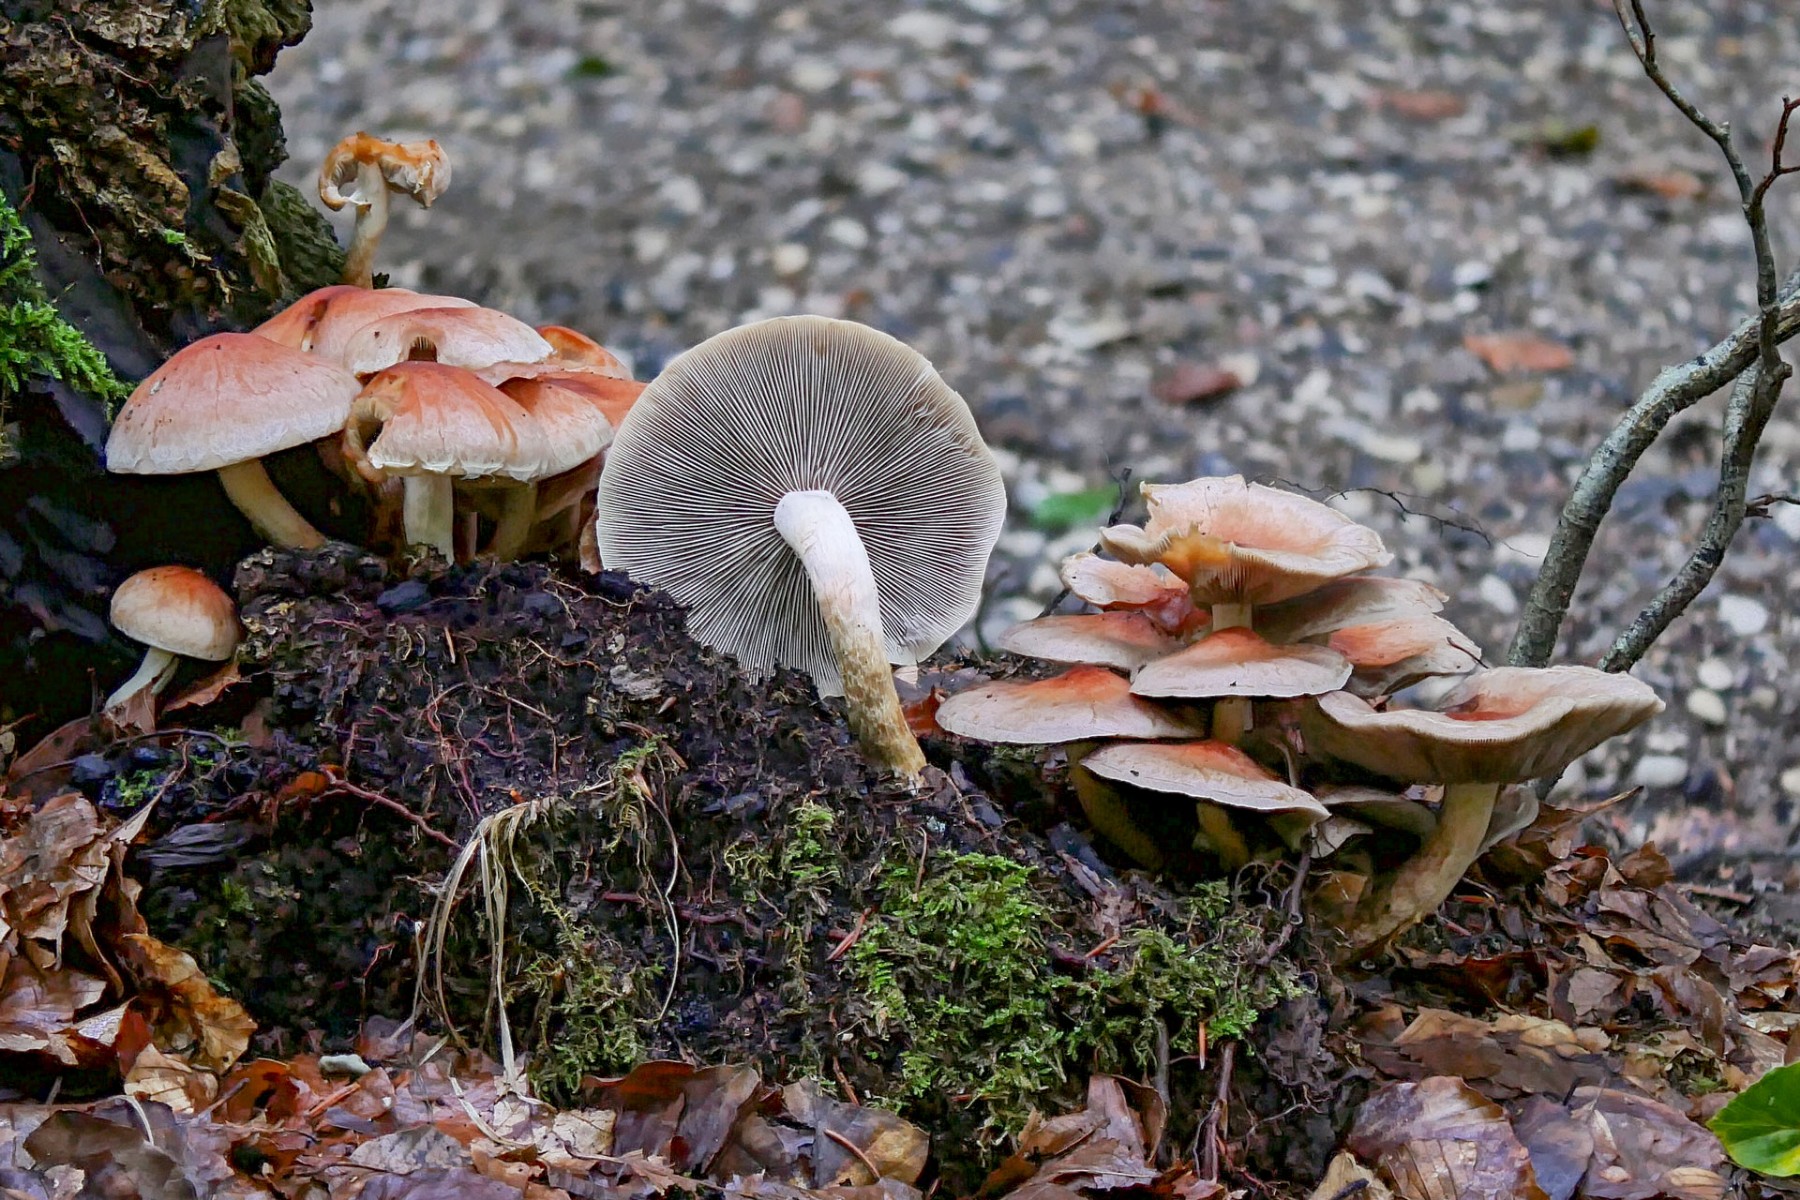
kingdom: Fungi
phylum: Basidiomycota
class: Agaricomycetes
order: Agaricales
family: Strophariaceae
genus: Hypholoma
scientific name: Hypholoma lateritium
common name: teglrød svovlhat
